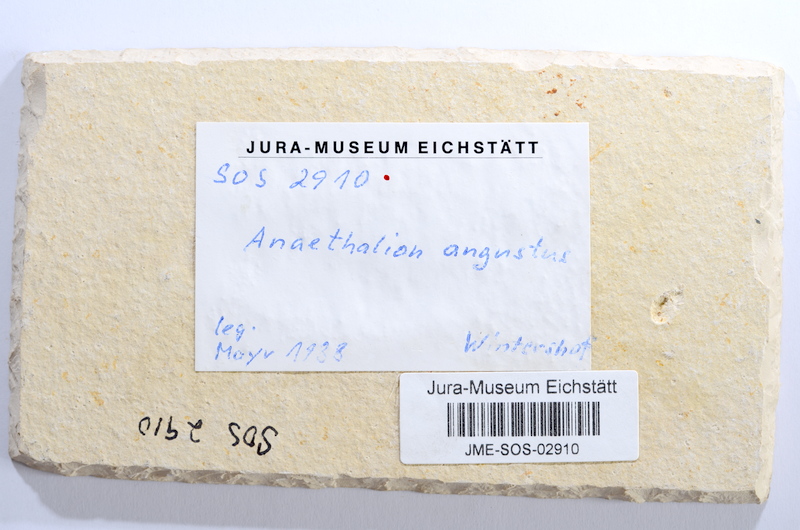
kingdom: Animalia
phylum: Chordata
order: Elopiformes
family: Anaethalionidae
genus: Anaethalion
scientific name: Anaethalion angustus
